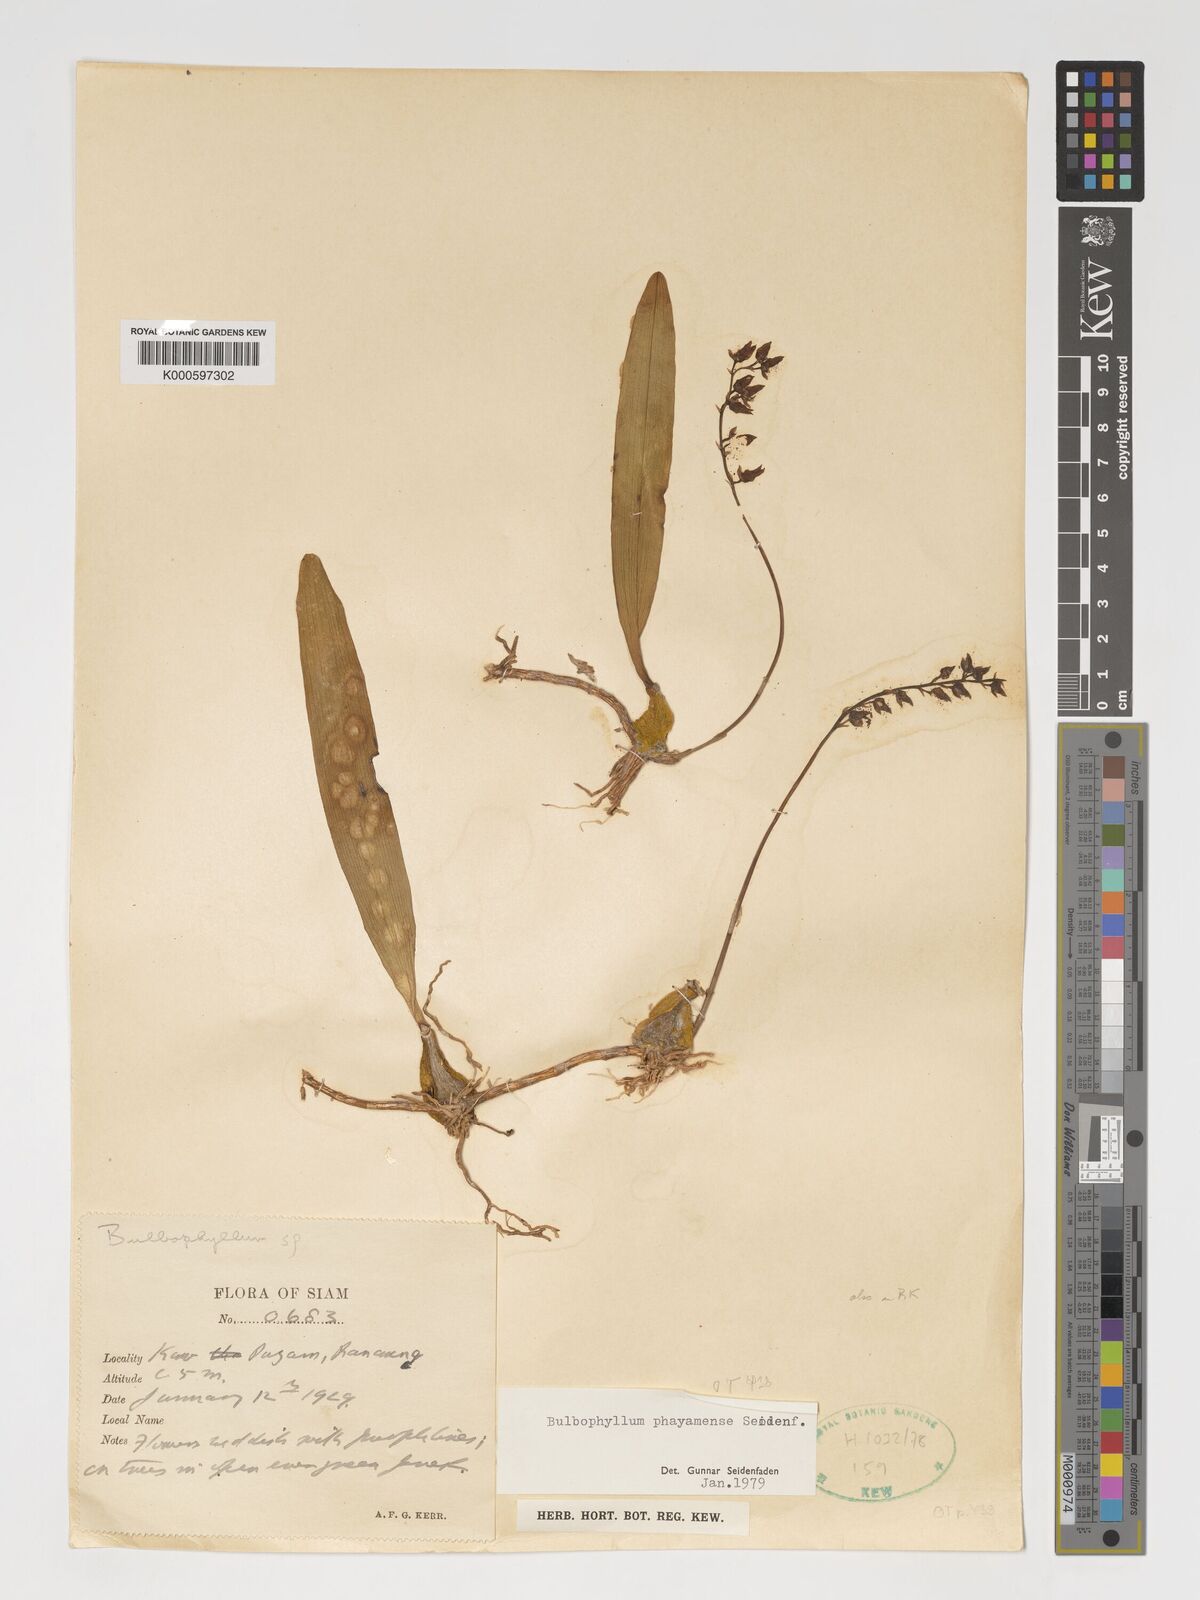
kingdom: Plantae
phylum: Tracheophyta
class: Liliopsida
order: Asparagales
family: Orchidaceae
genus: Bulbophyllum
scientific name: Bulbophyllum phayamense
